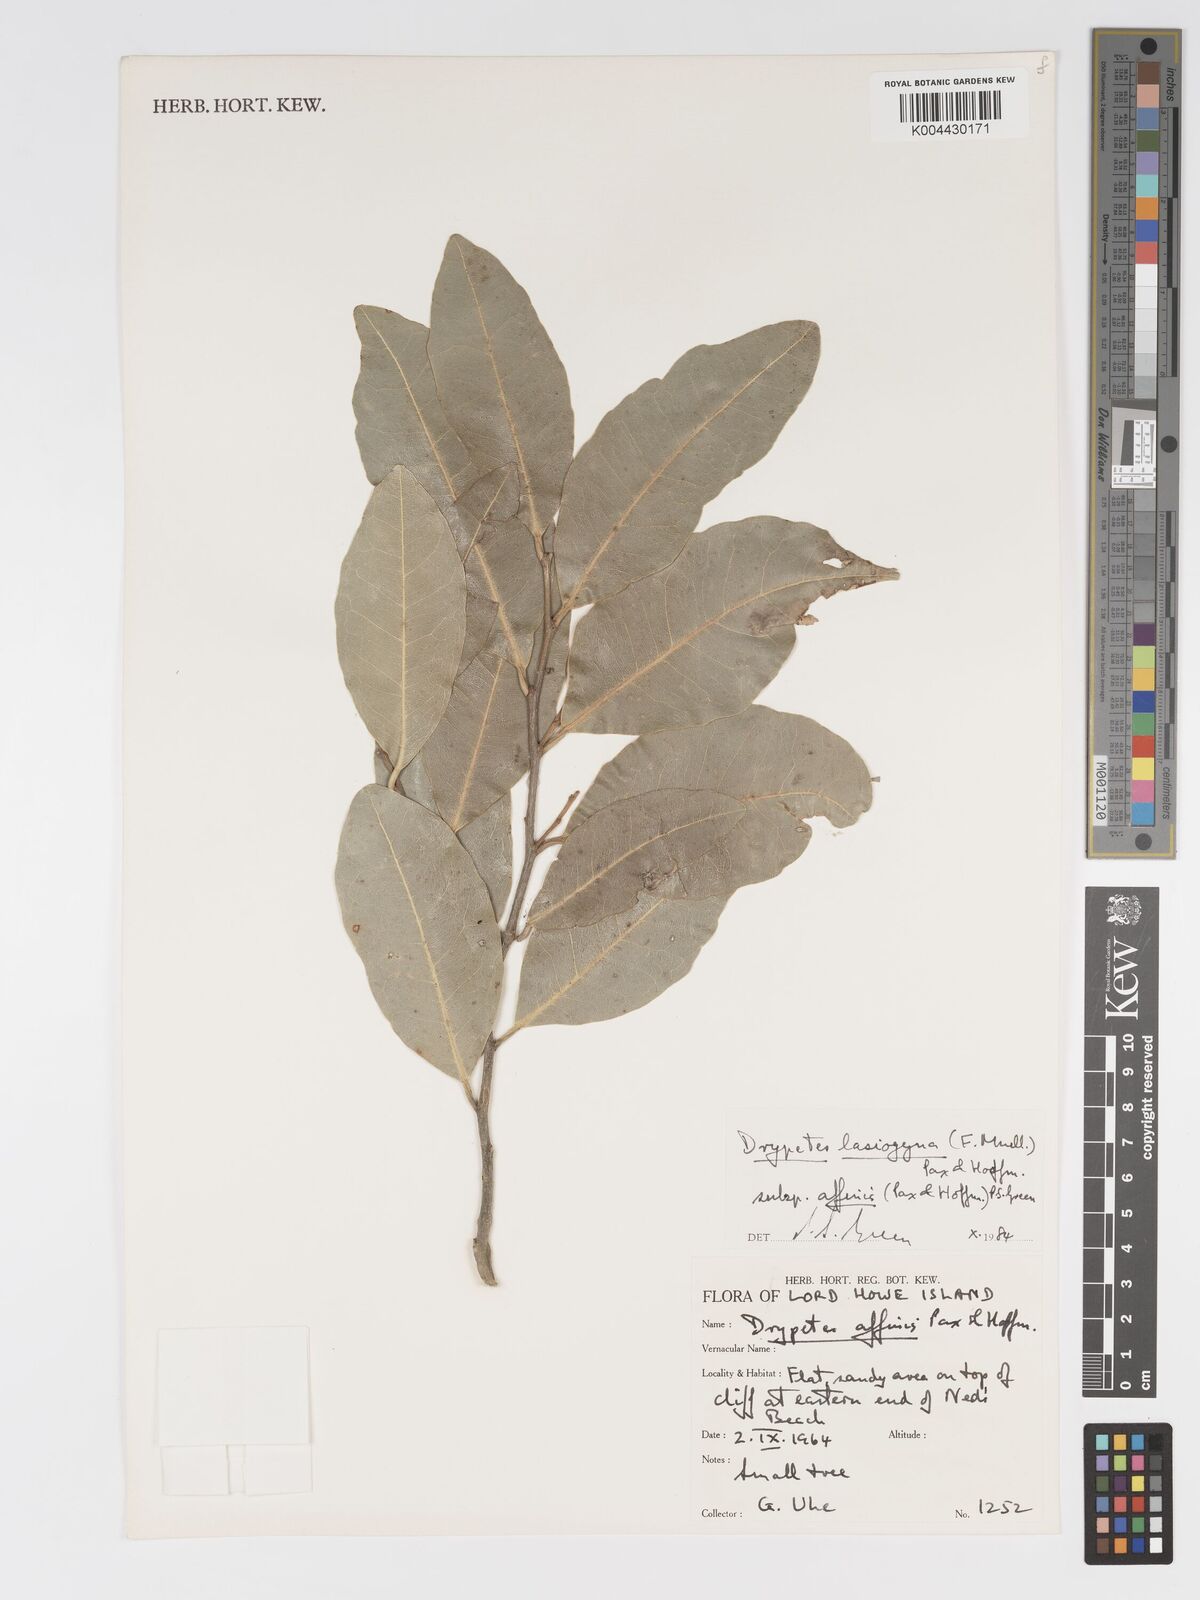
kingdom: Plantae
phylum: Tracheophyta
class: Magnoliopsida
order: Malpighiales
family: Putranjivaceae
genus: Drypetes
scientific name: Drypetes deplanchei
